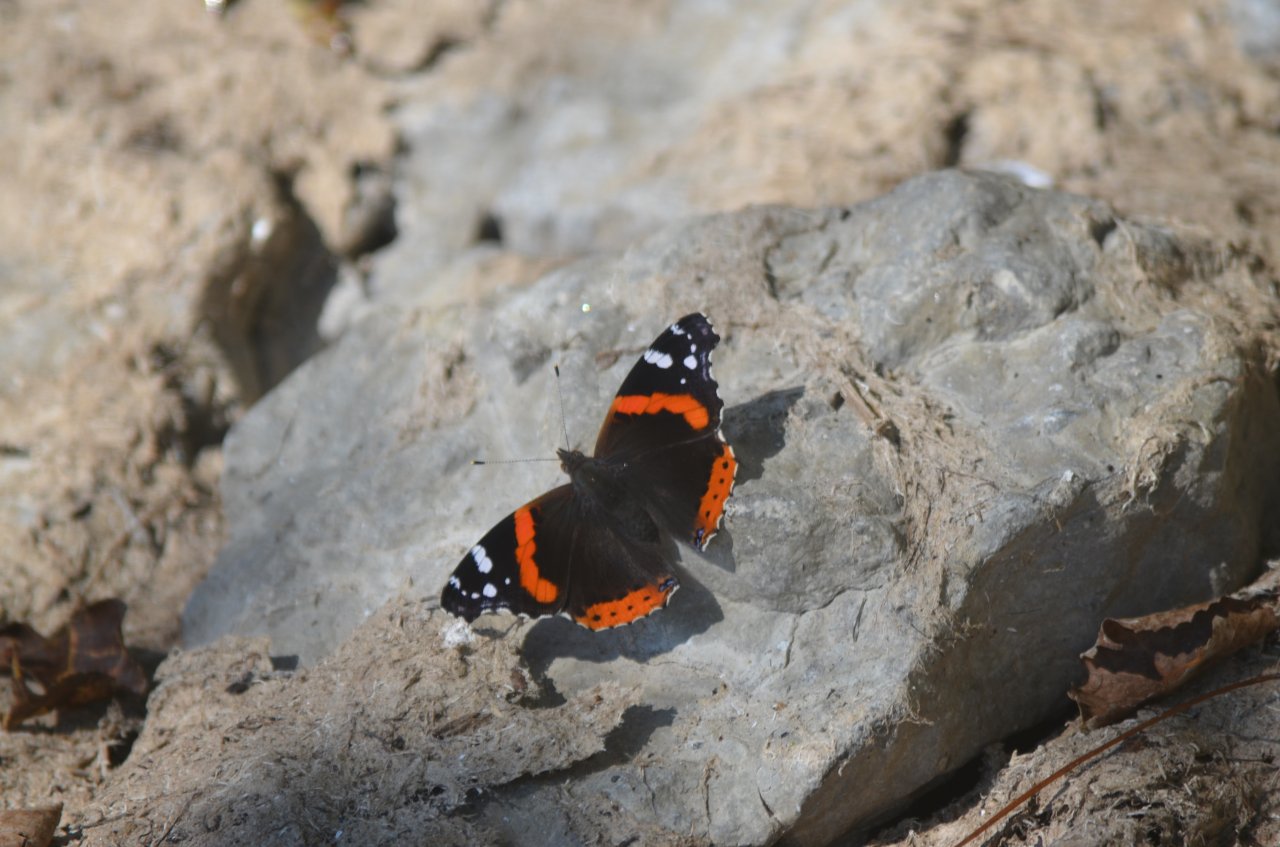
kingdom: Animalia
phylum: Arthropoda
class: Insecta
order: Lepidoptera
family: Nymphalidae
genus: Vanessa
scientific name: Vanessa atalanta
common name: Red Admiral
